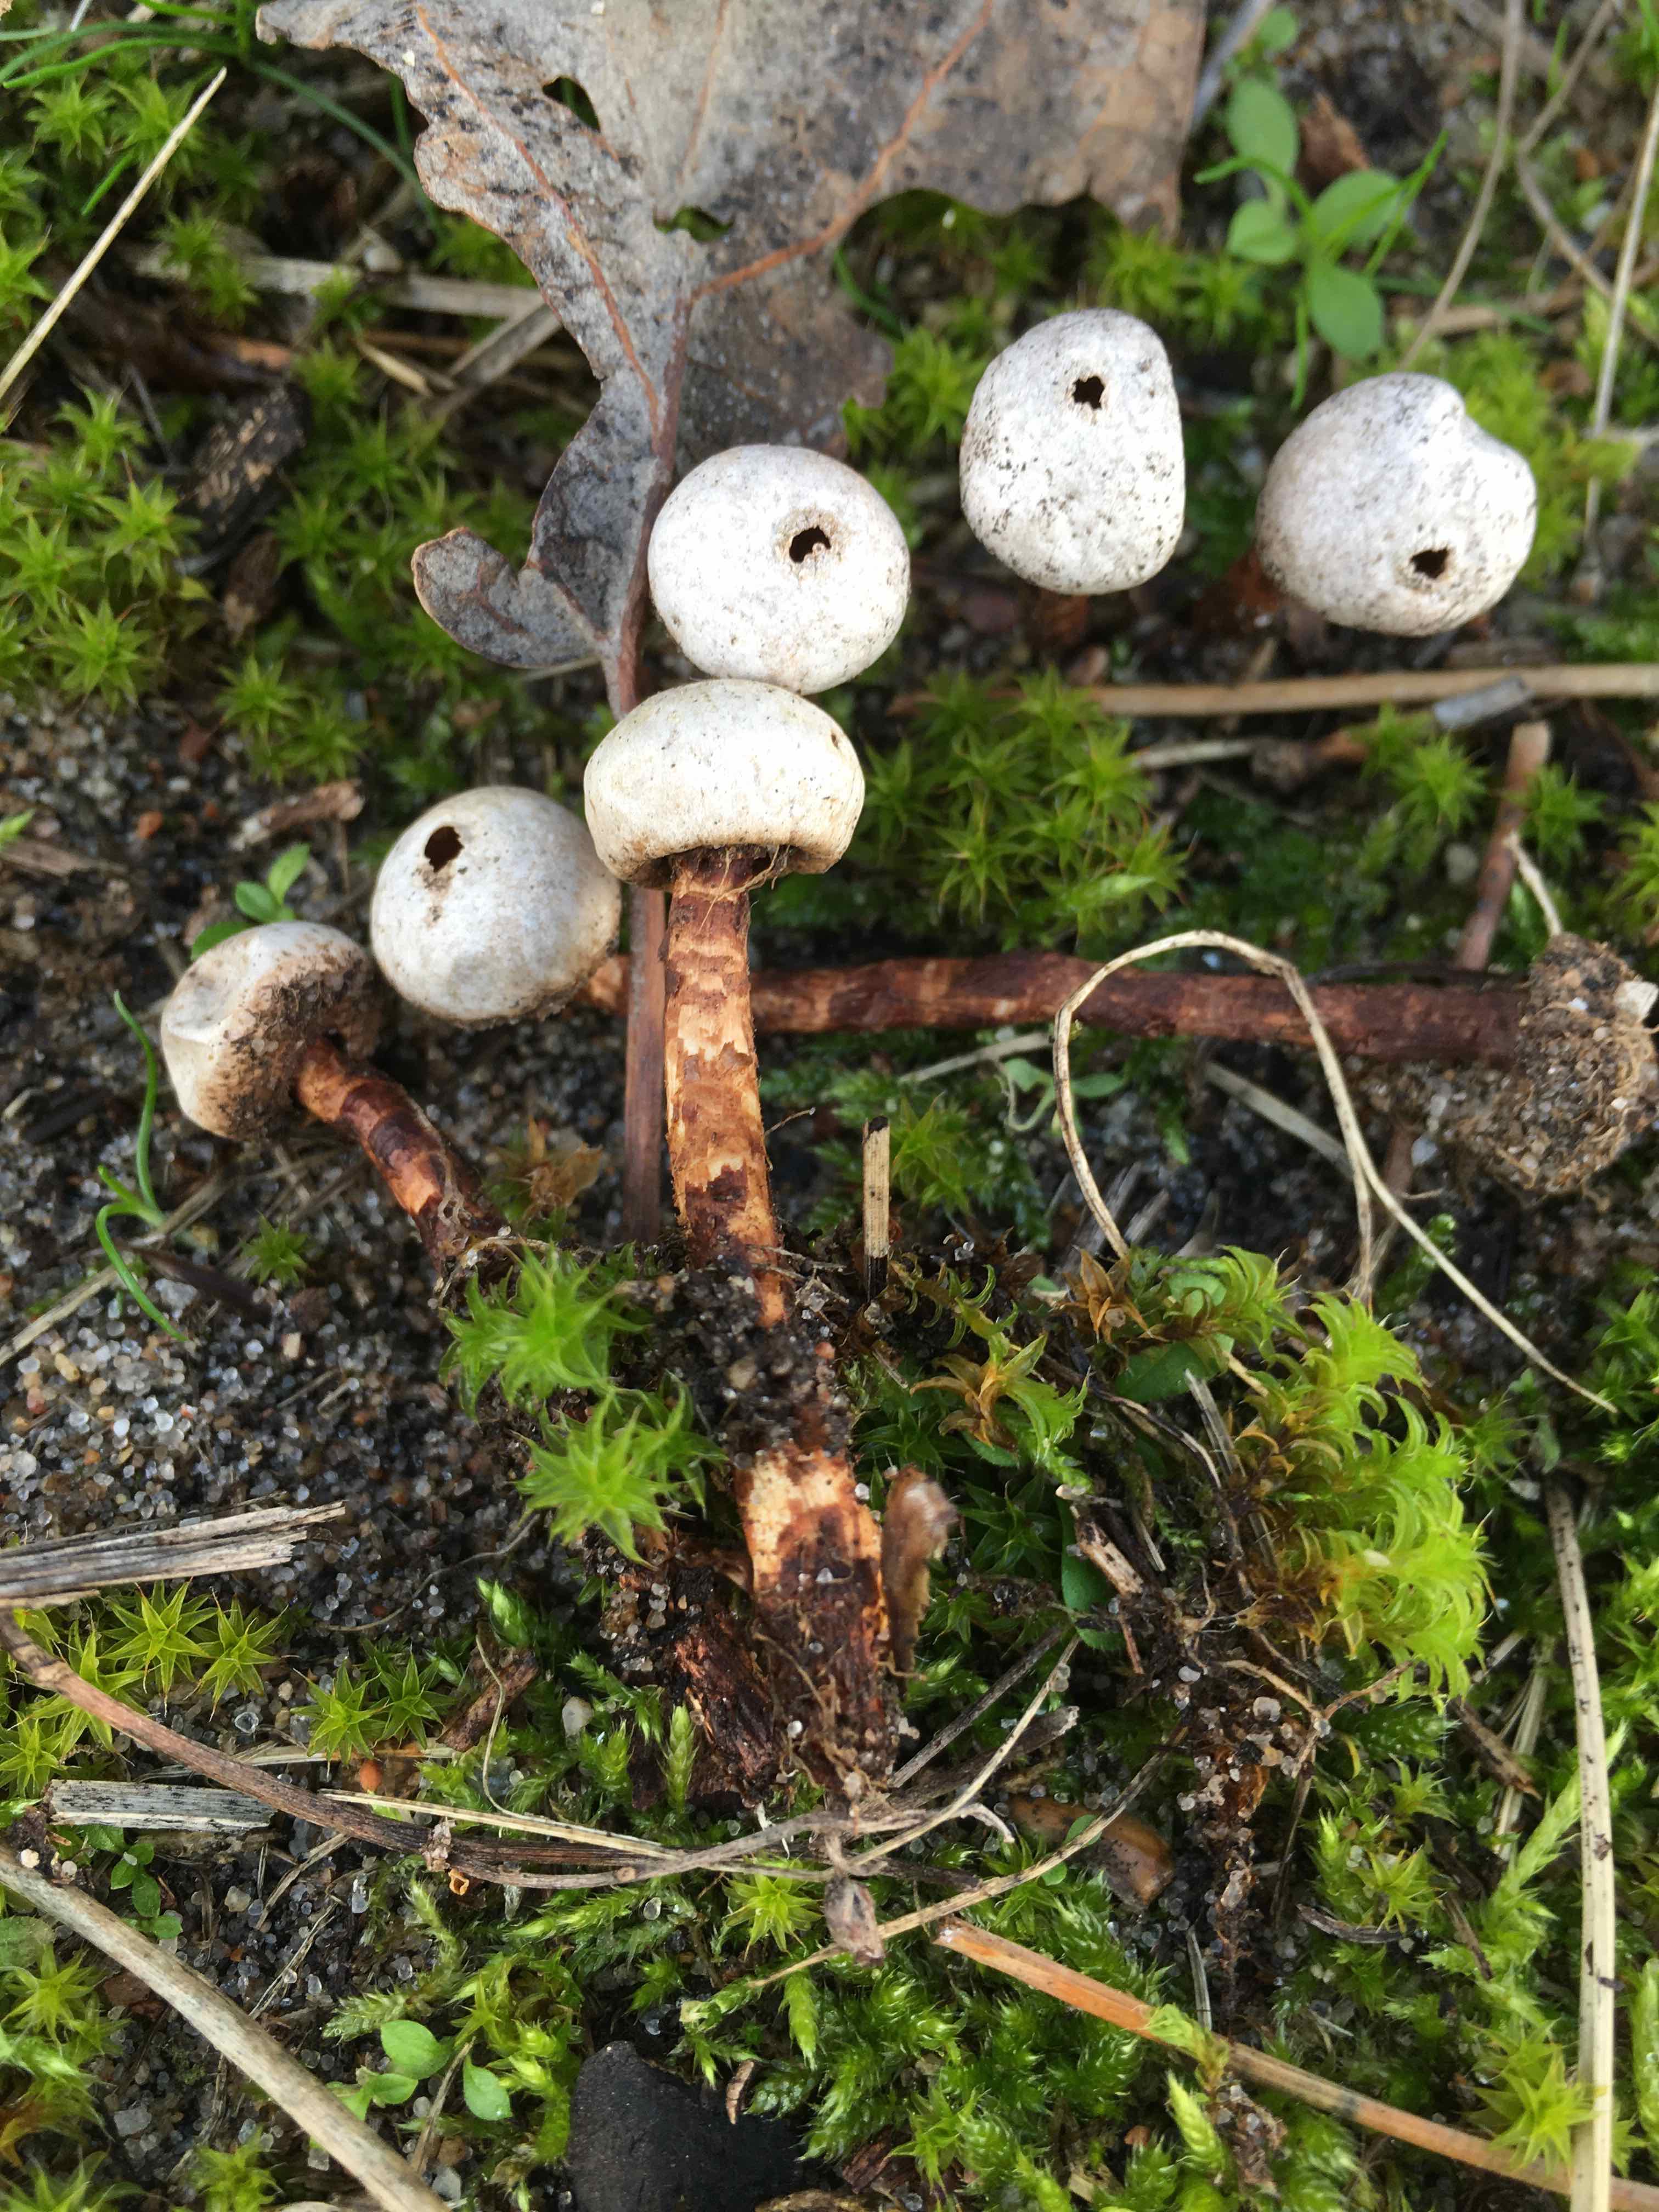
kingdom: Fungi
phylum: Basidiomycota
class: Agaricomycetes
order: Agaricales
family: Agaricaceae
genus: Tulostoma
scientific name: Tulostoma winterhoffii
